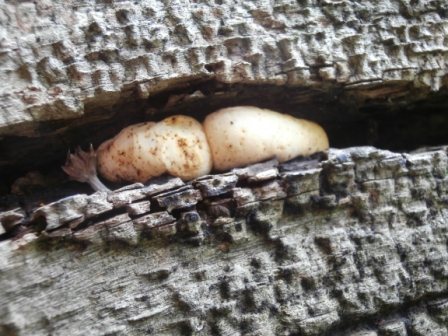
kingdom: Fungi
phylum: Basidiomycota
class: Agaricomycetes
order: Polyporales
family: Fomitopsidaceae
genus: Buglossoporus
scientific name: Buglossoporus quercinus
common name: egetunge
